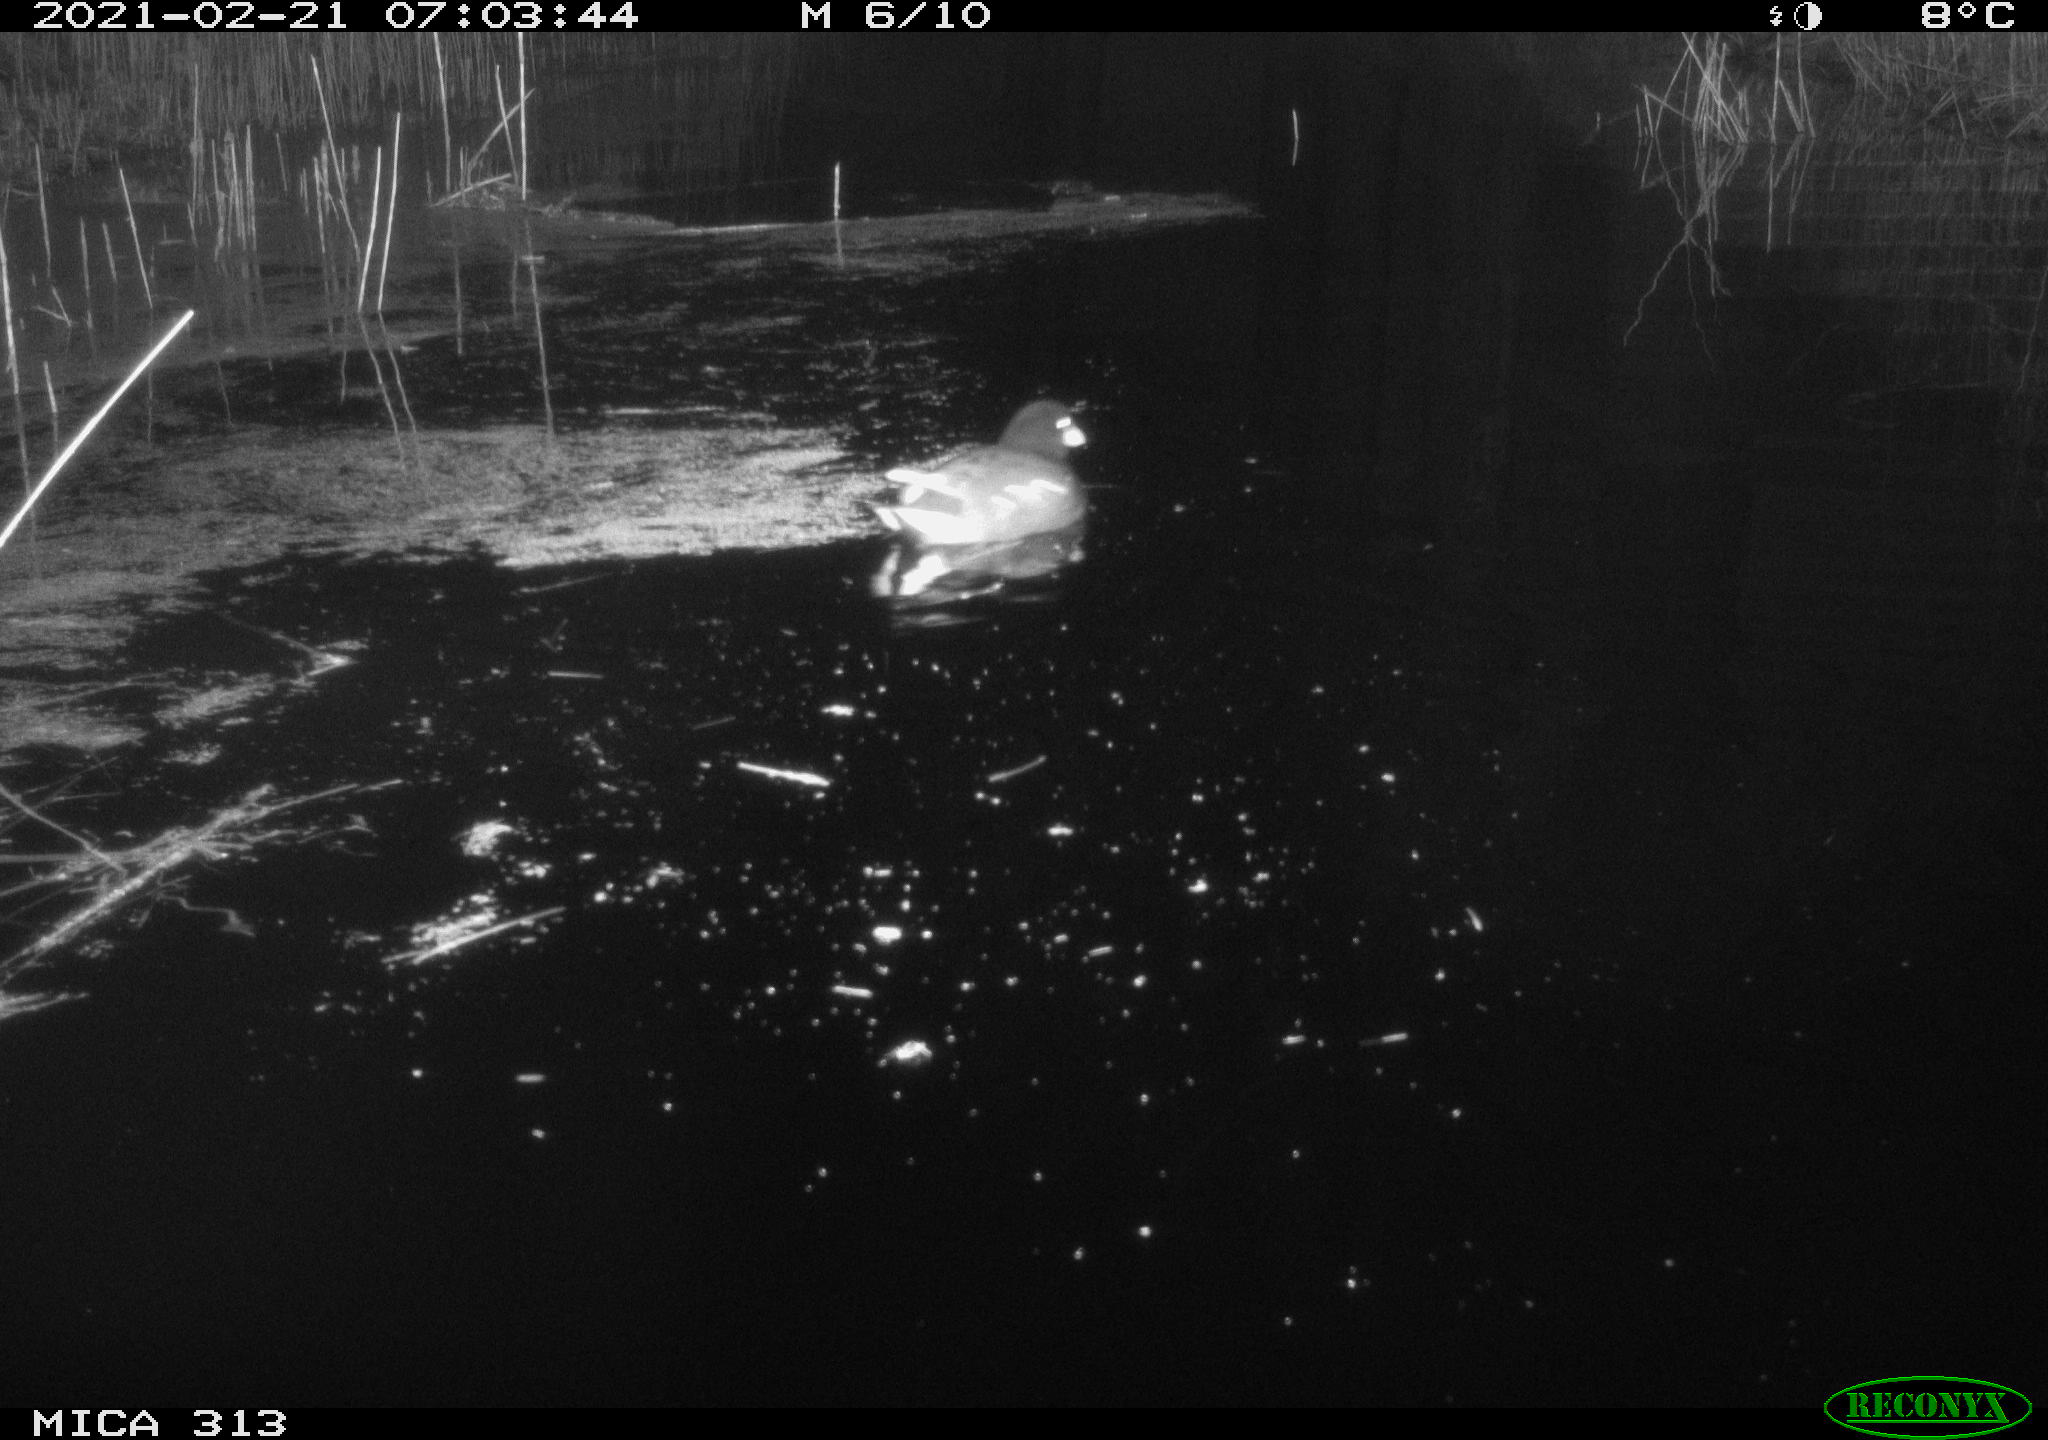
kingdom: Animalia
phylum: Chordata
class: Aves
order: Gruiformes
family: Rallidae
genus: Gallinula
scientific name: Gallinula chloropus
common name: Common moorhen
